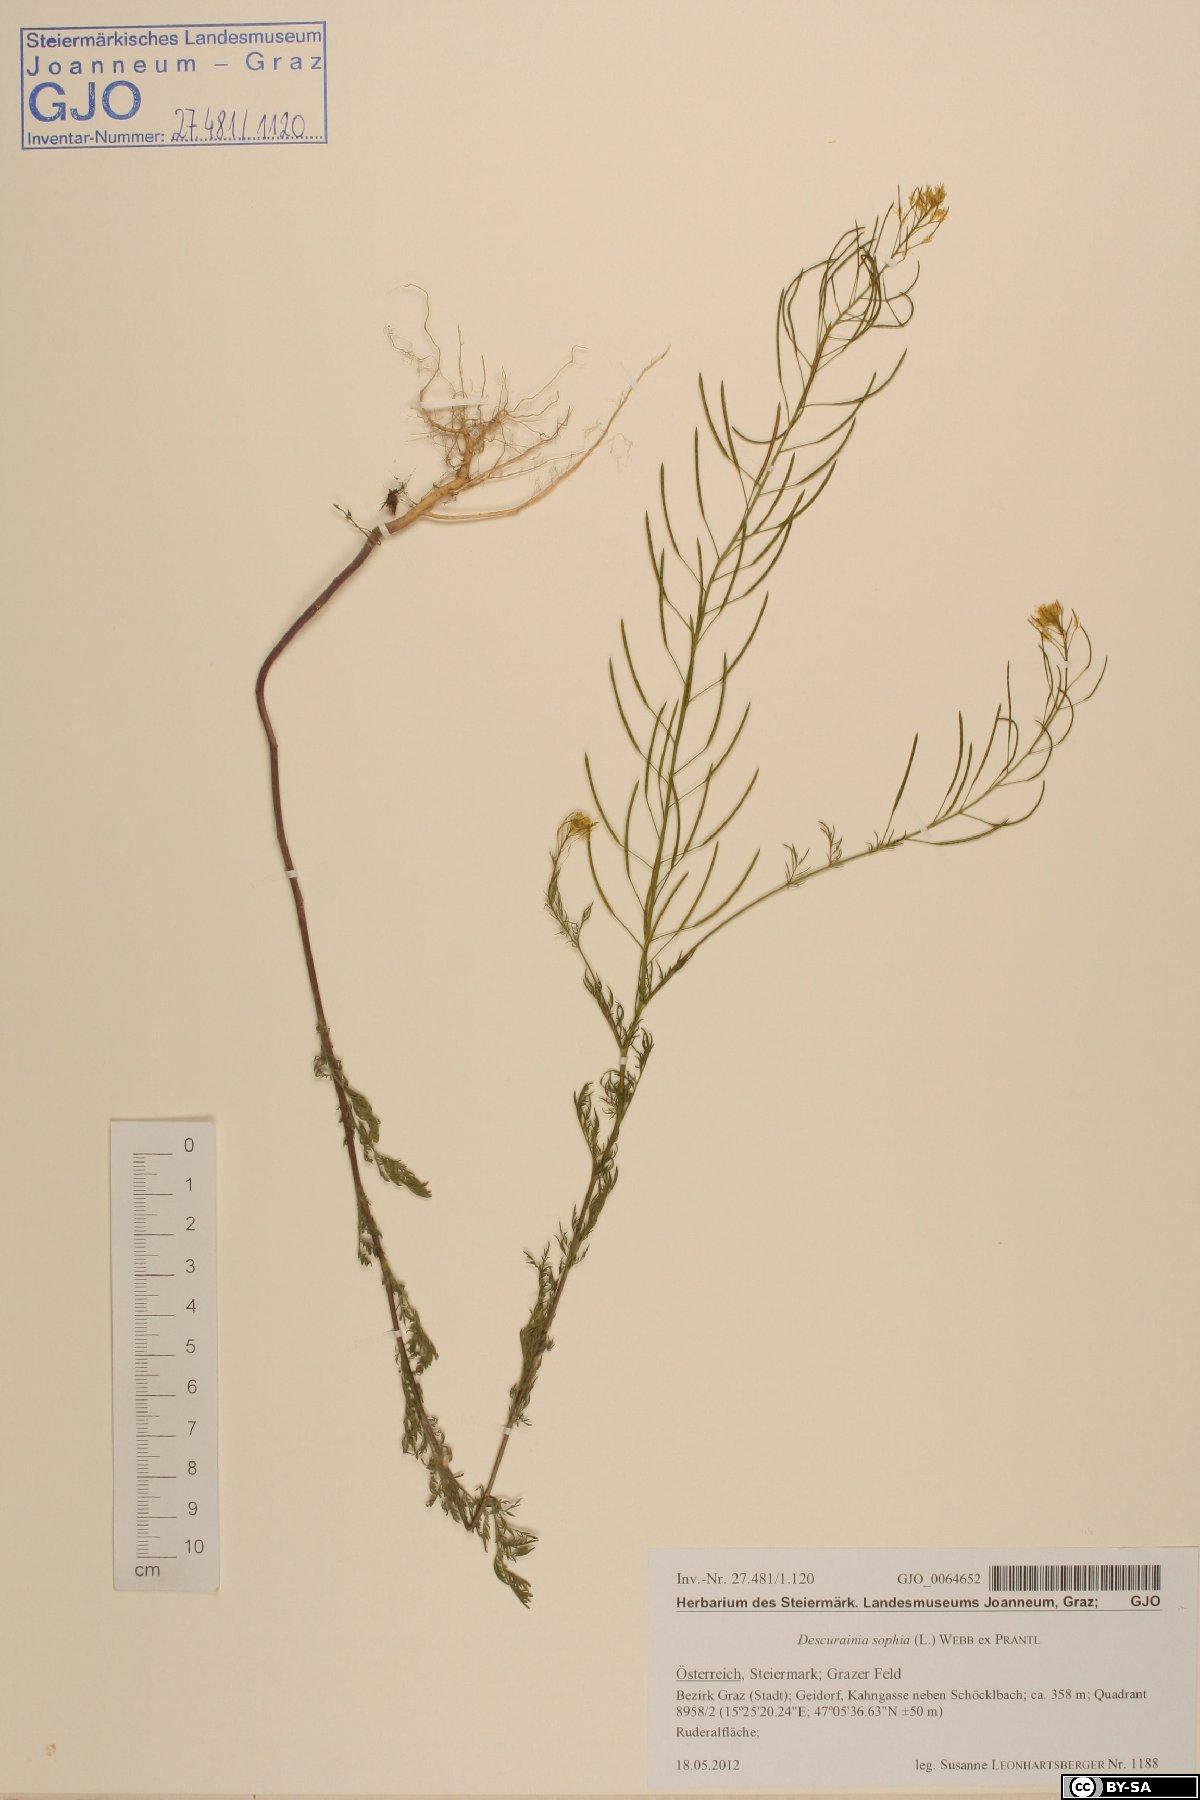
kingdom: Plantae
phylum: Tracheophyta
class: Magnoliopsida
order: Brassicales
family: Brassicaceae
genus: Descurainia
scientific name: Descurainia sophia
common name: Flixweed
